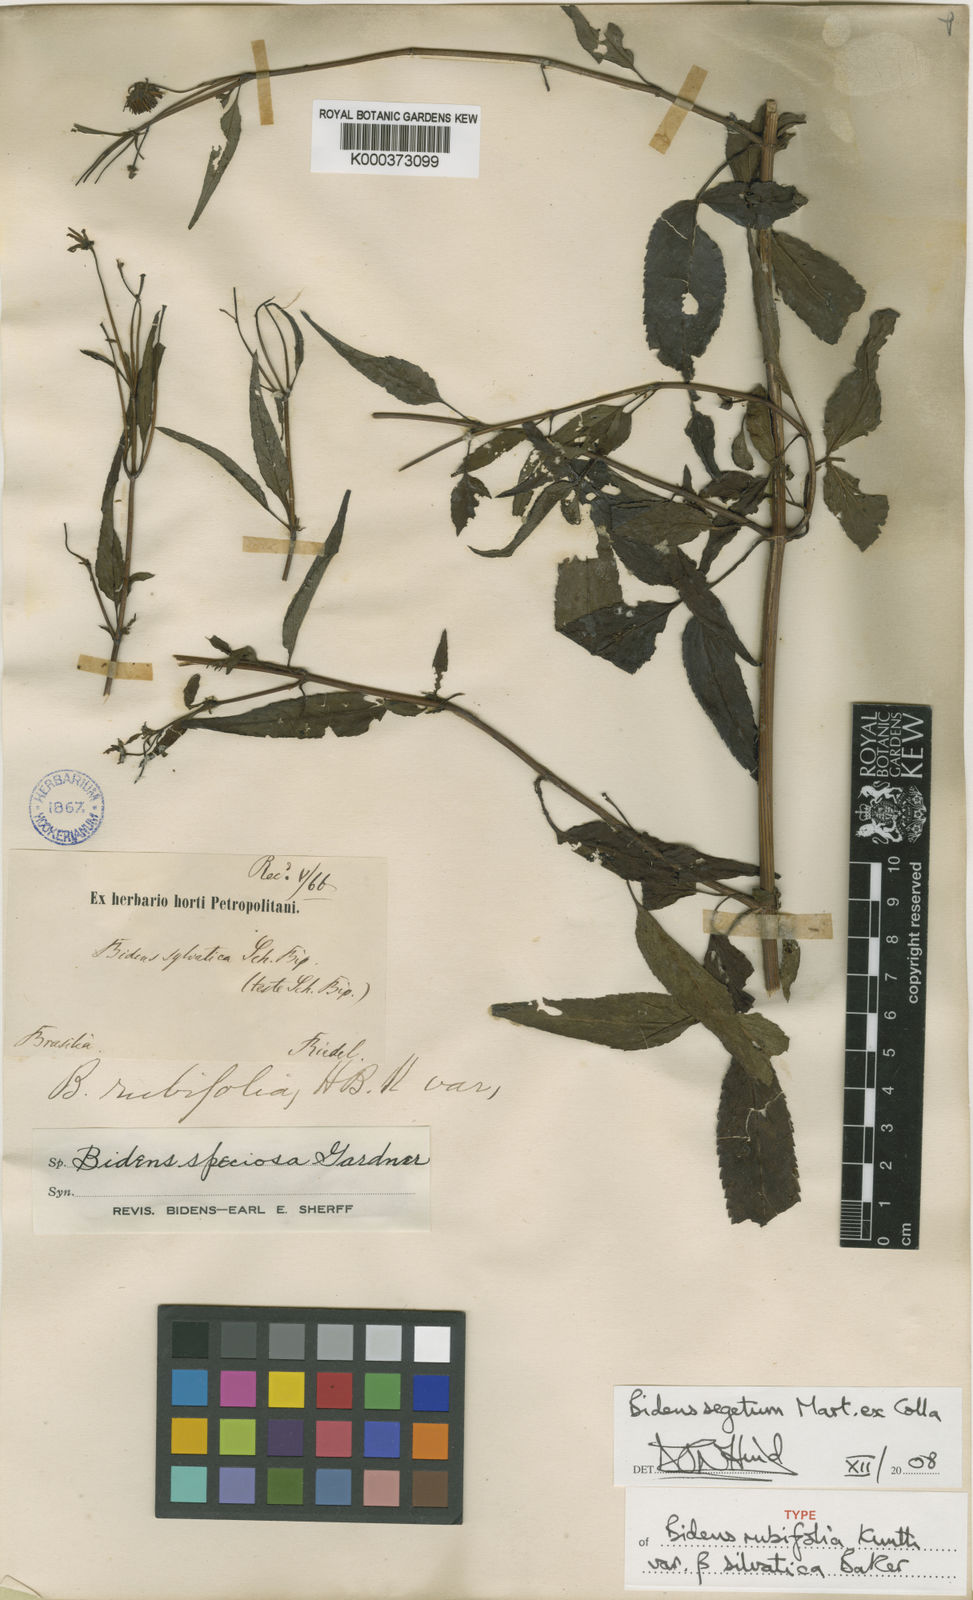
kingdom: Plantae
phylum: Tracheophyta
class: Magnoliopsida
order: Asterales
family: Asteraceae
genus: Bidens
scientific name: Bidens segetum
